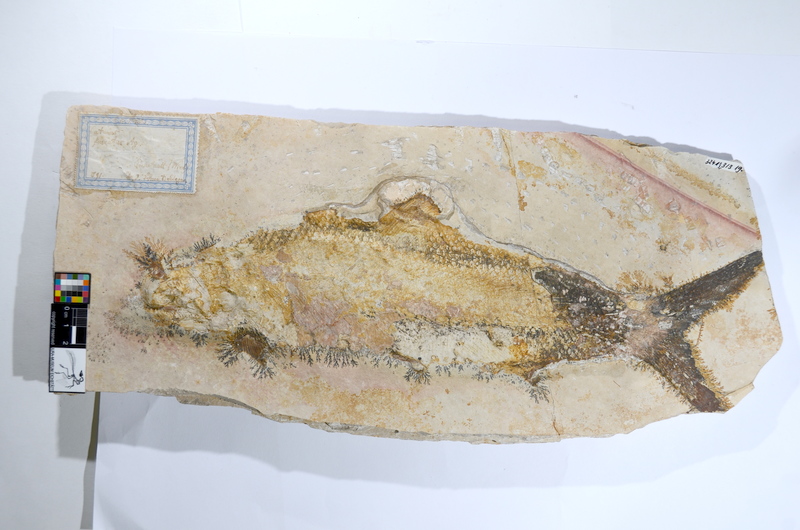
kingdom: Animalia
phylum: Chordata
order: Amiiformes
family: Caturidae
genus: Caturus
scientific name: Caturus furcatus
